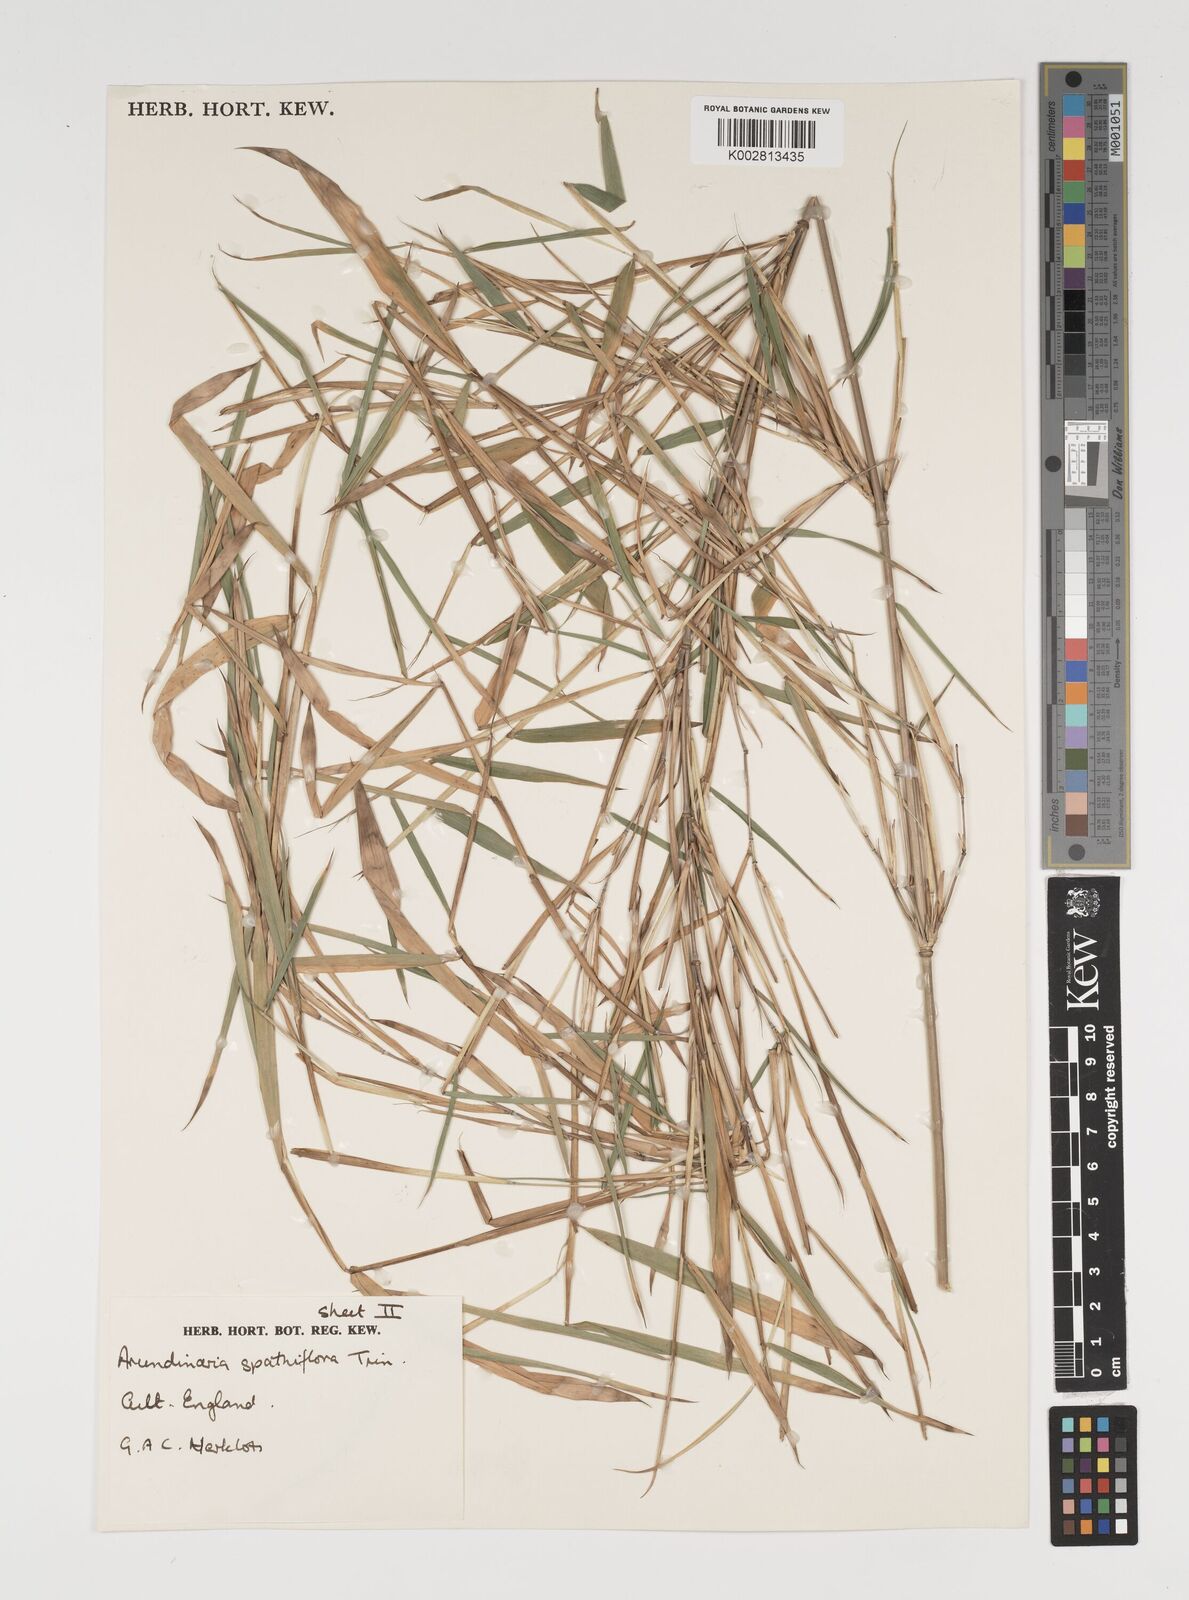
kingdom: Plantae
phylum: Tracheophyta
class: Liliopsida
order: Poales
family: Poaceae
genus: Thamnocalamus
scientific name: Thamnocalamus
